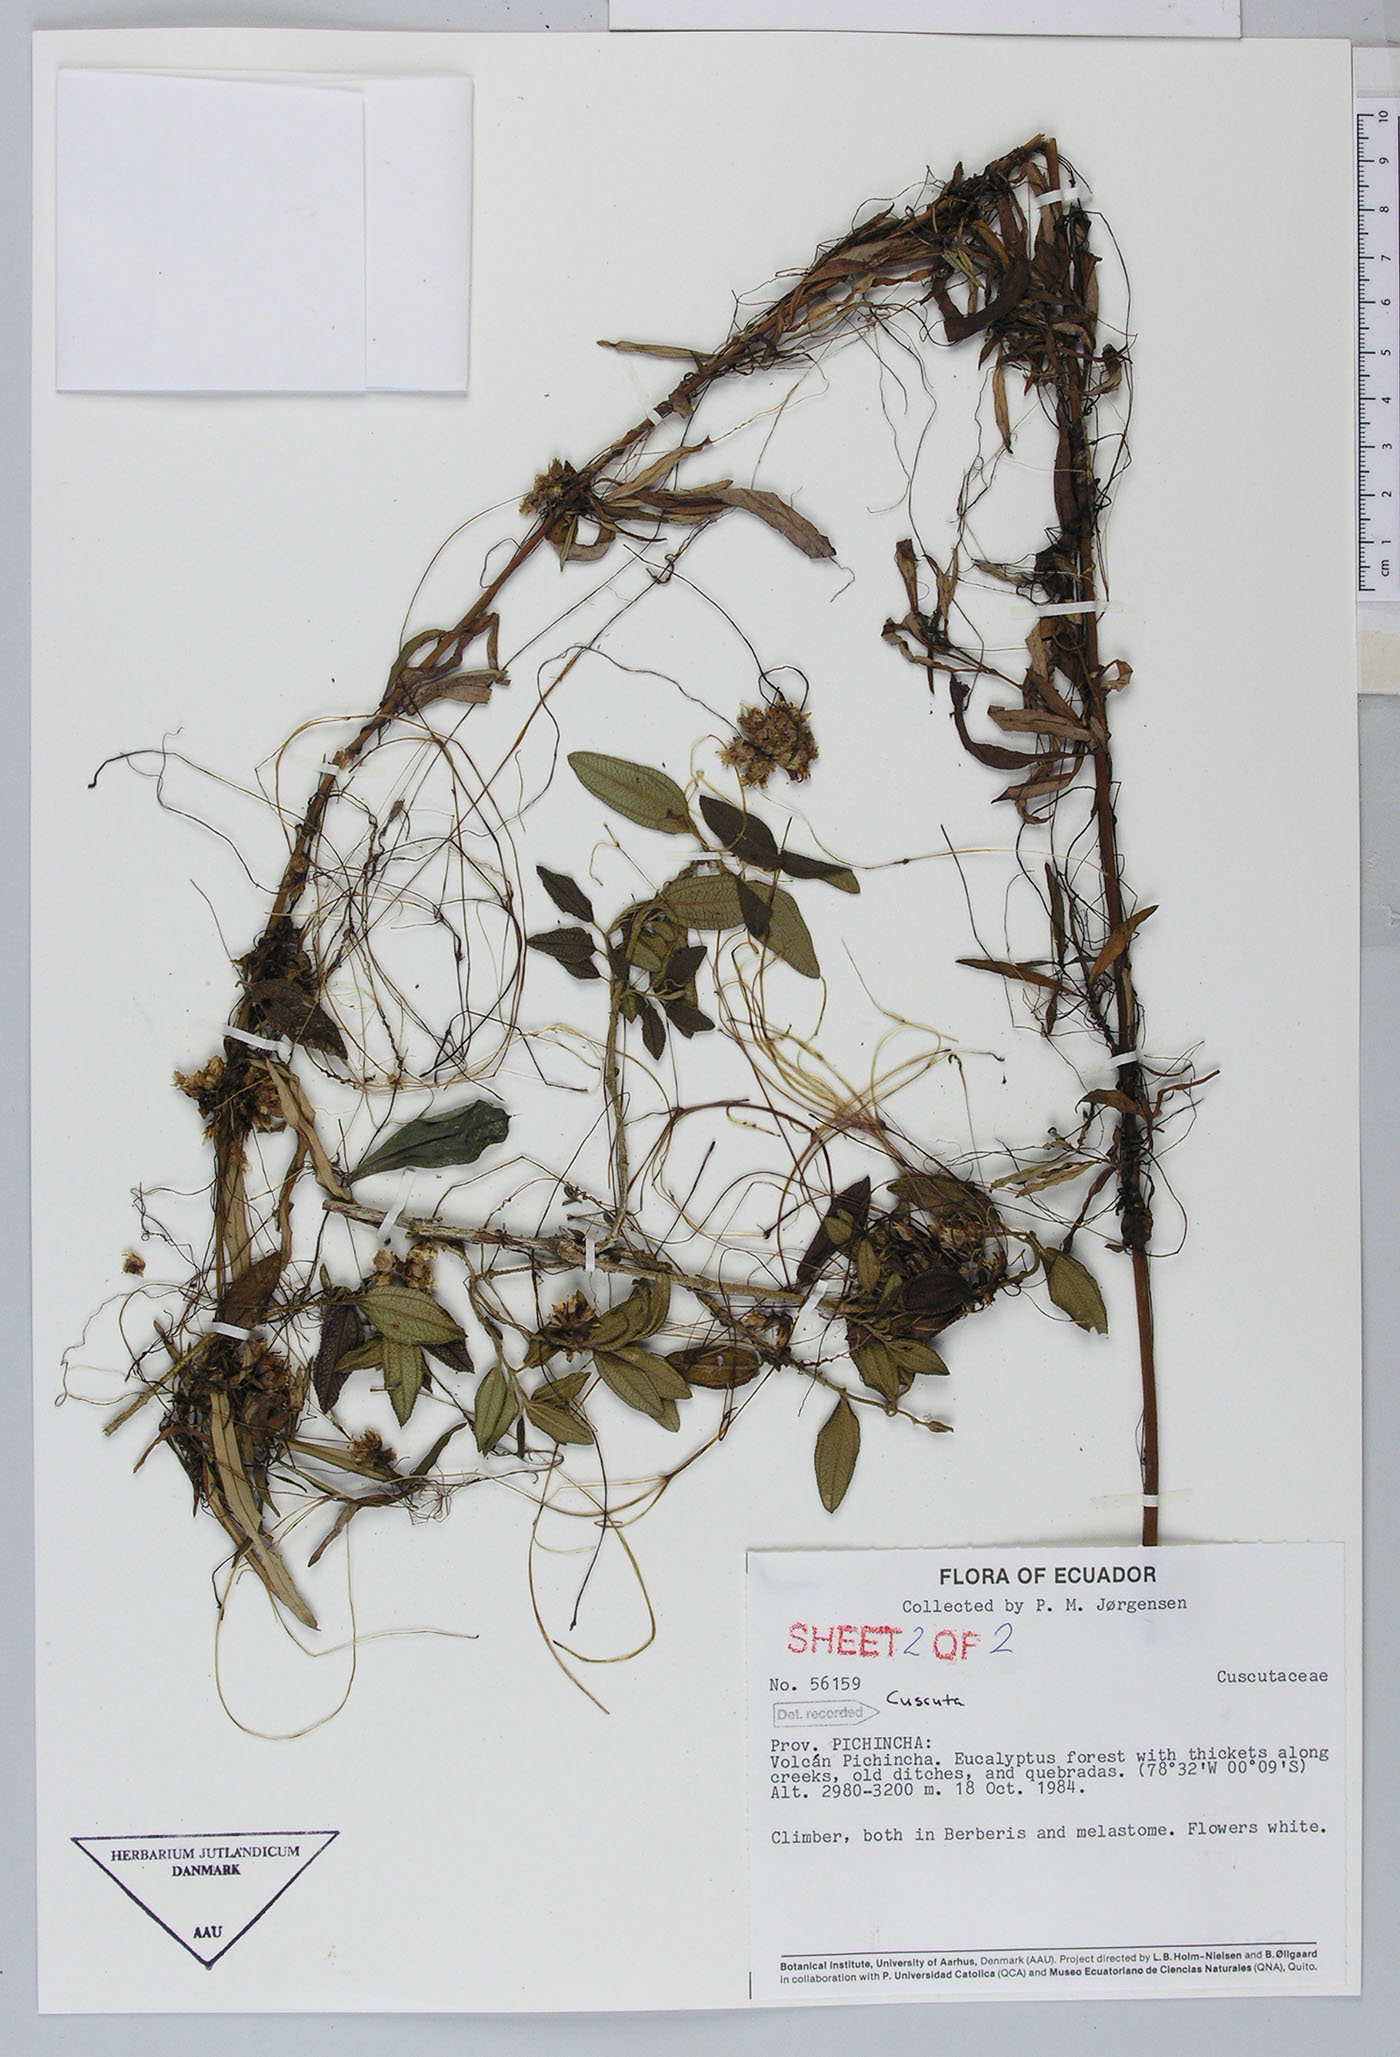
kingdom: Plantae
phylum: Tracheophyta
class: Magnoliopsida
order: Solanales
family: Convolvulaceae
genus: Cuscuta
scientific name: Cuscuta foetida
